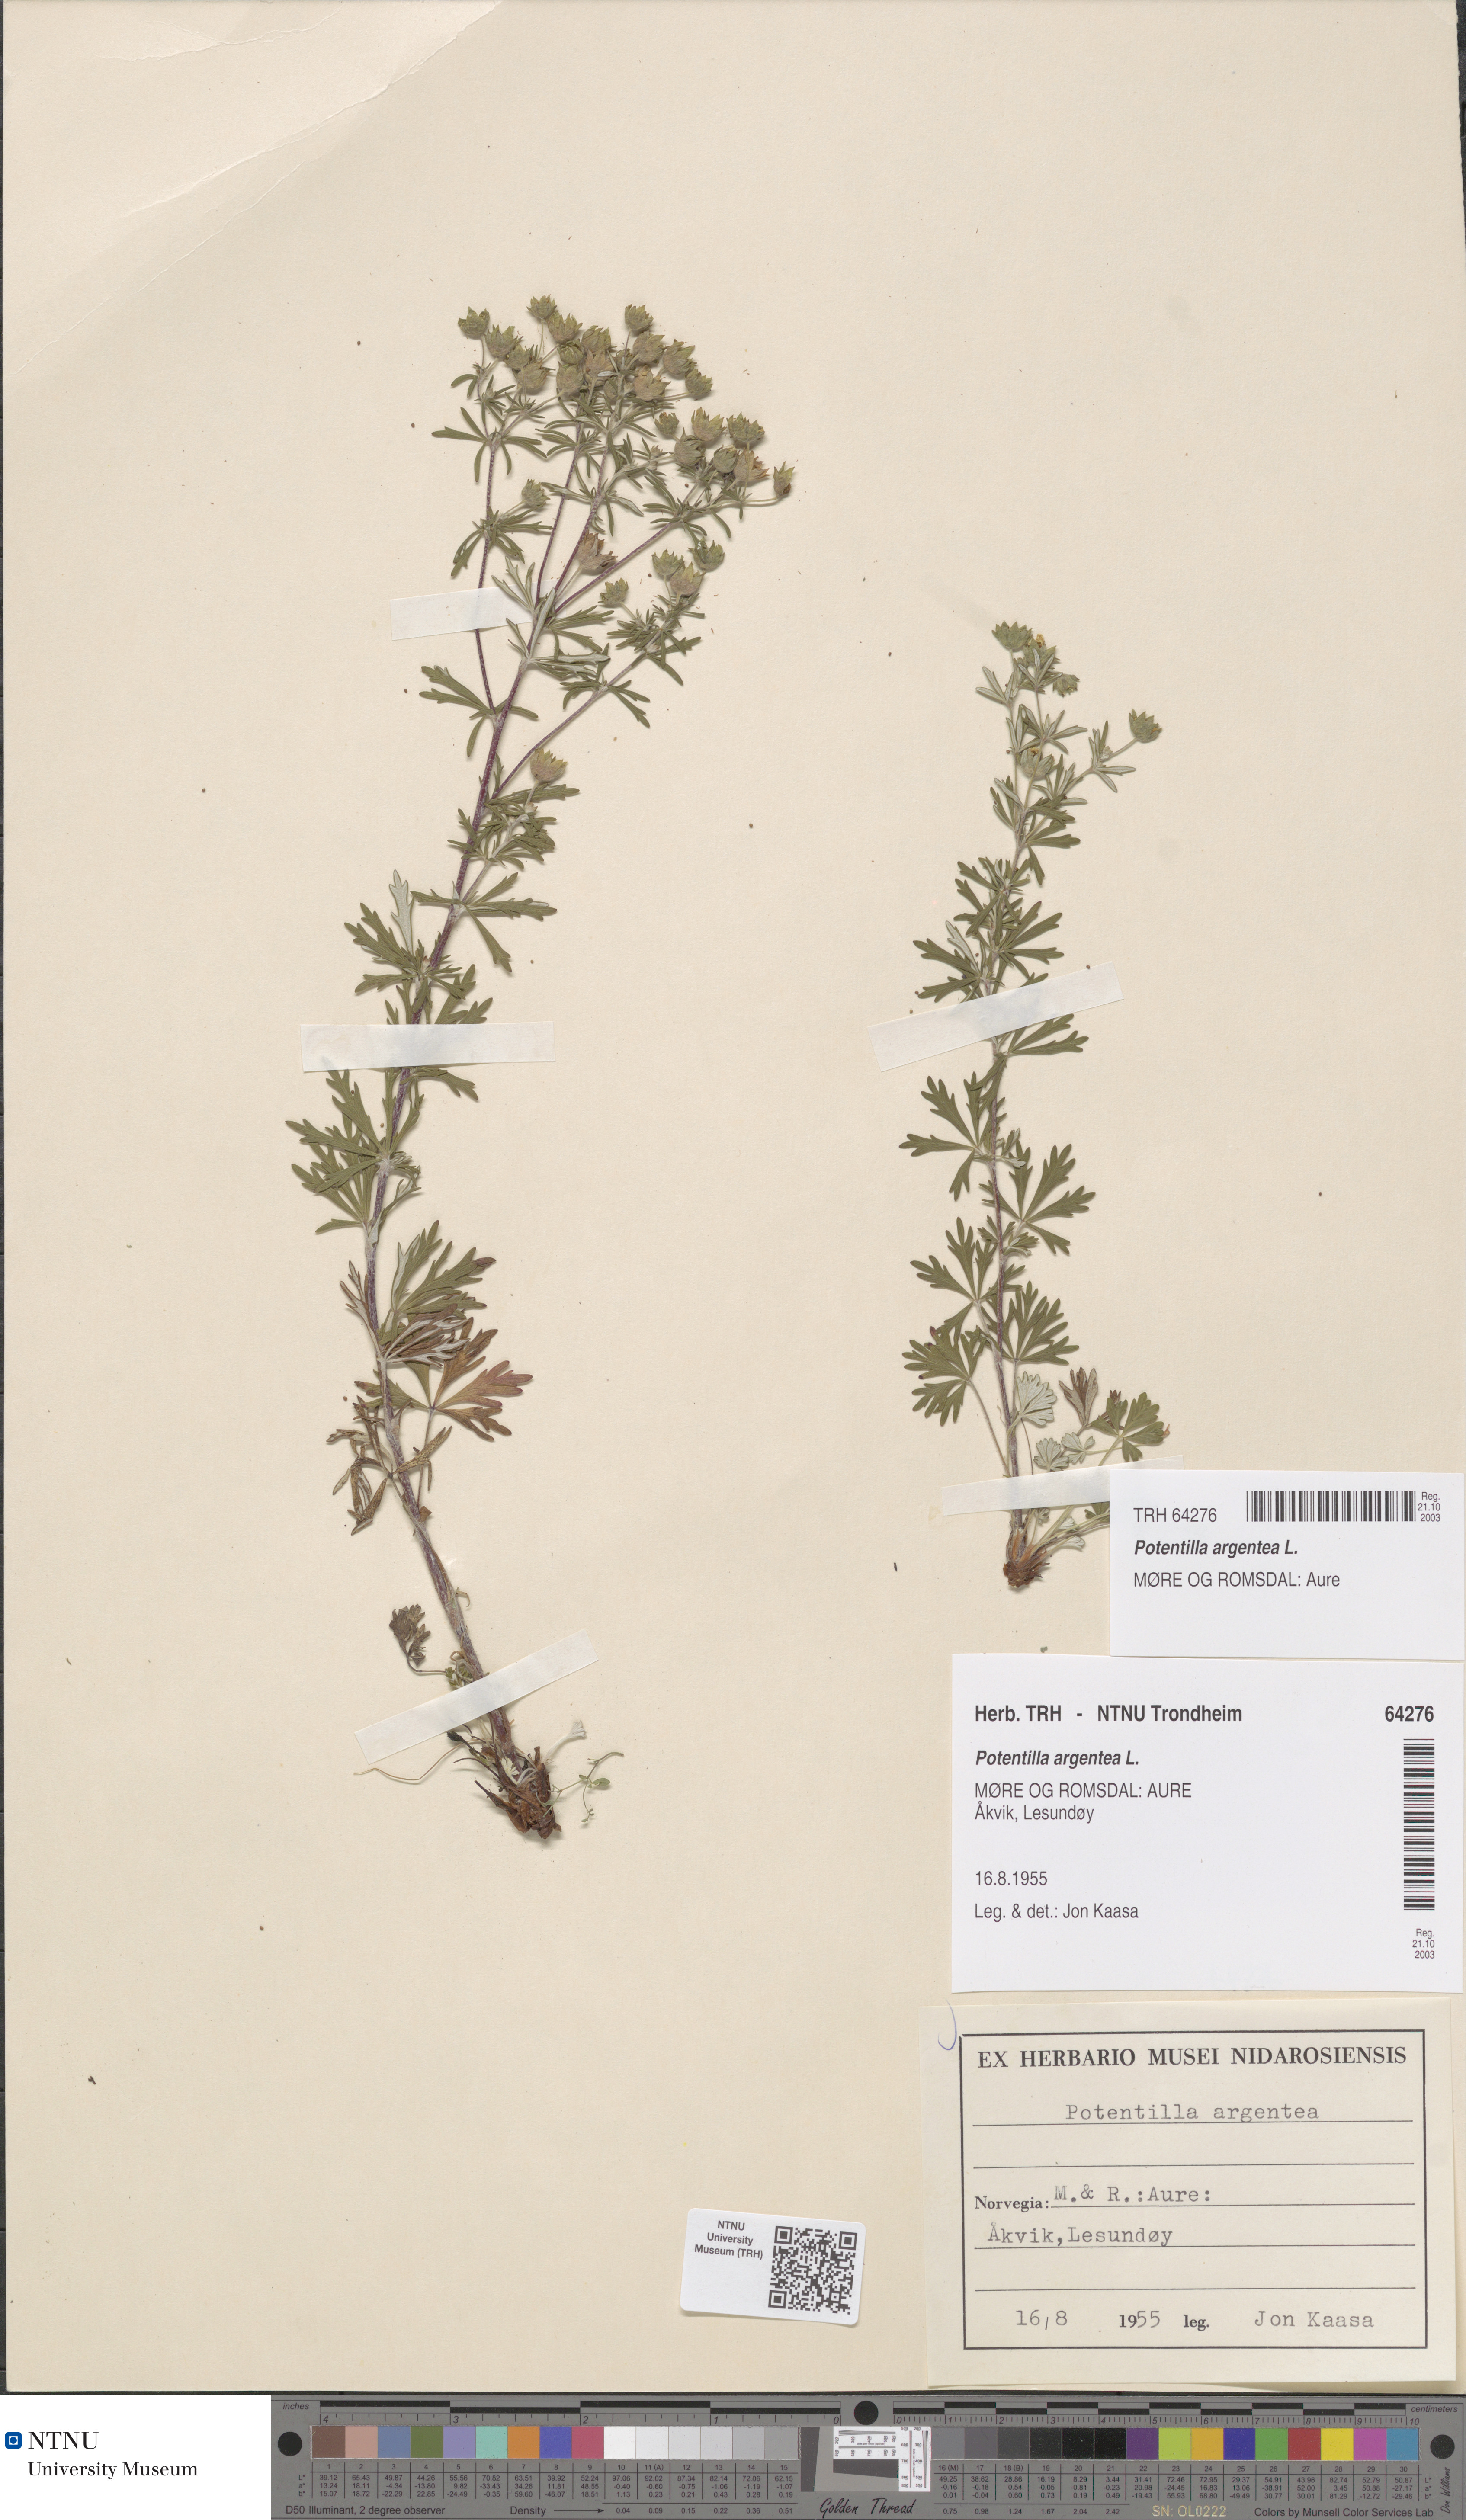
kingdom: Plantae
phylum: Tracheophyta
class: Magnoliopsida
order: Rosales
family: Rosaceae
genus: Potentilla
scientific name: Potentilla argentea
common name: Hoary cinquefoil
